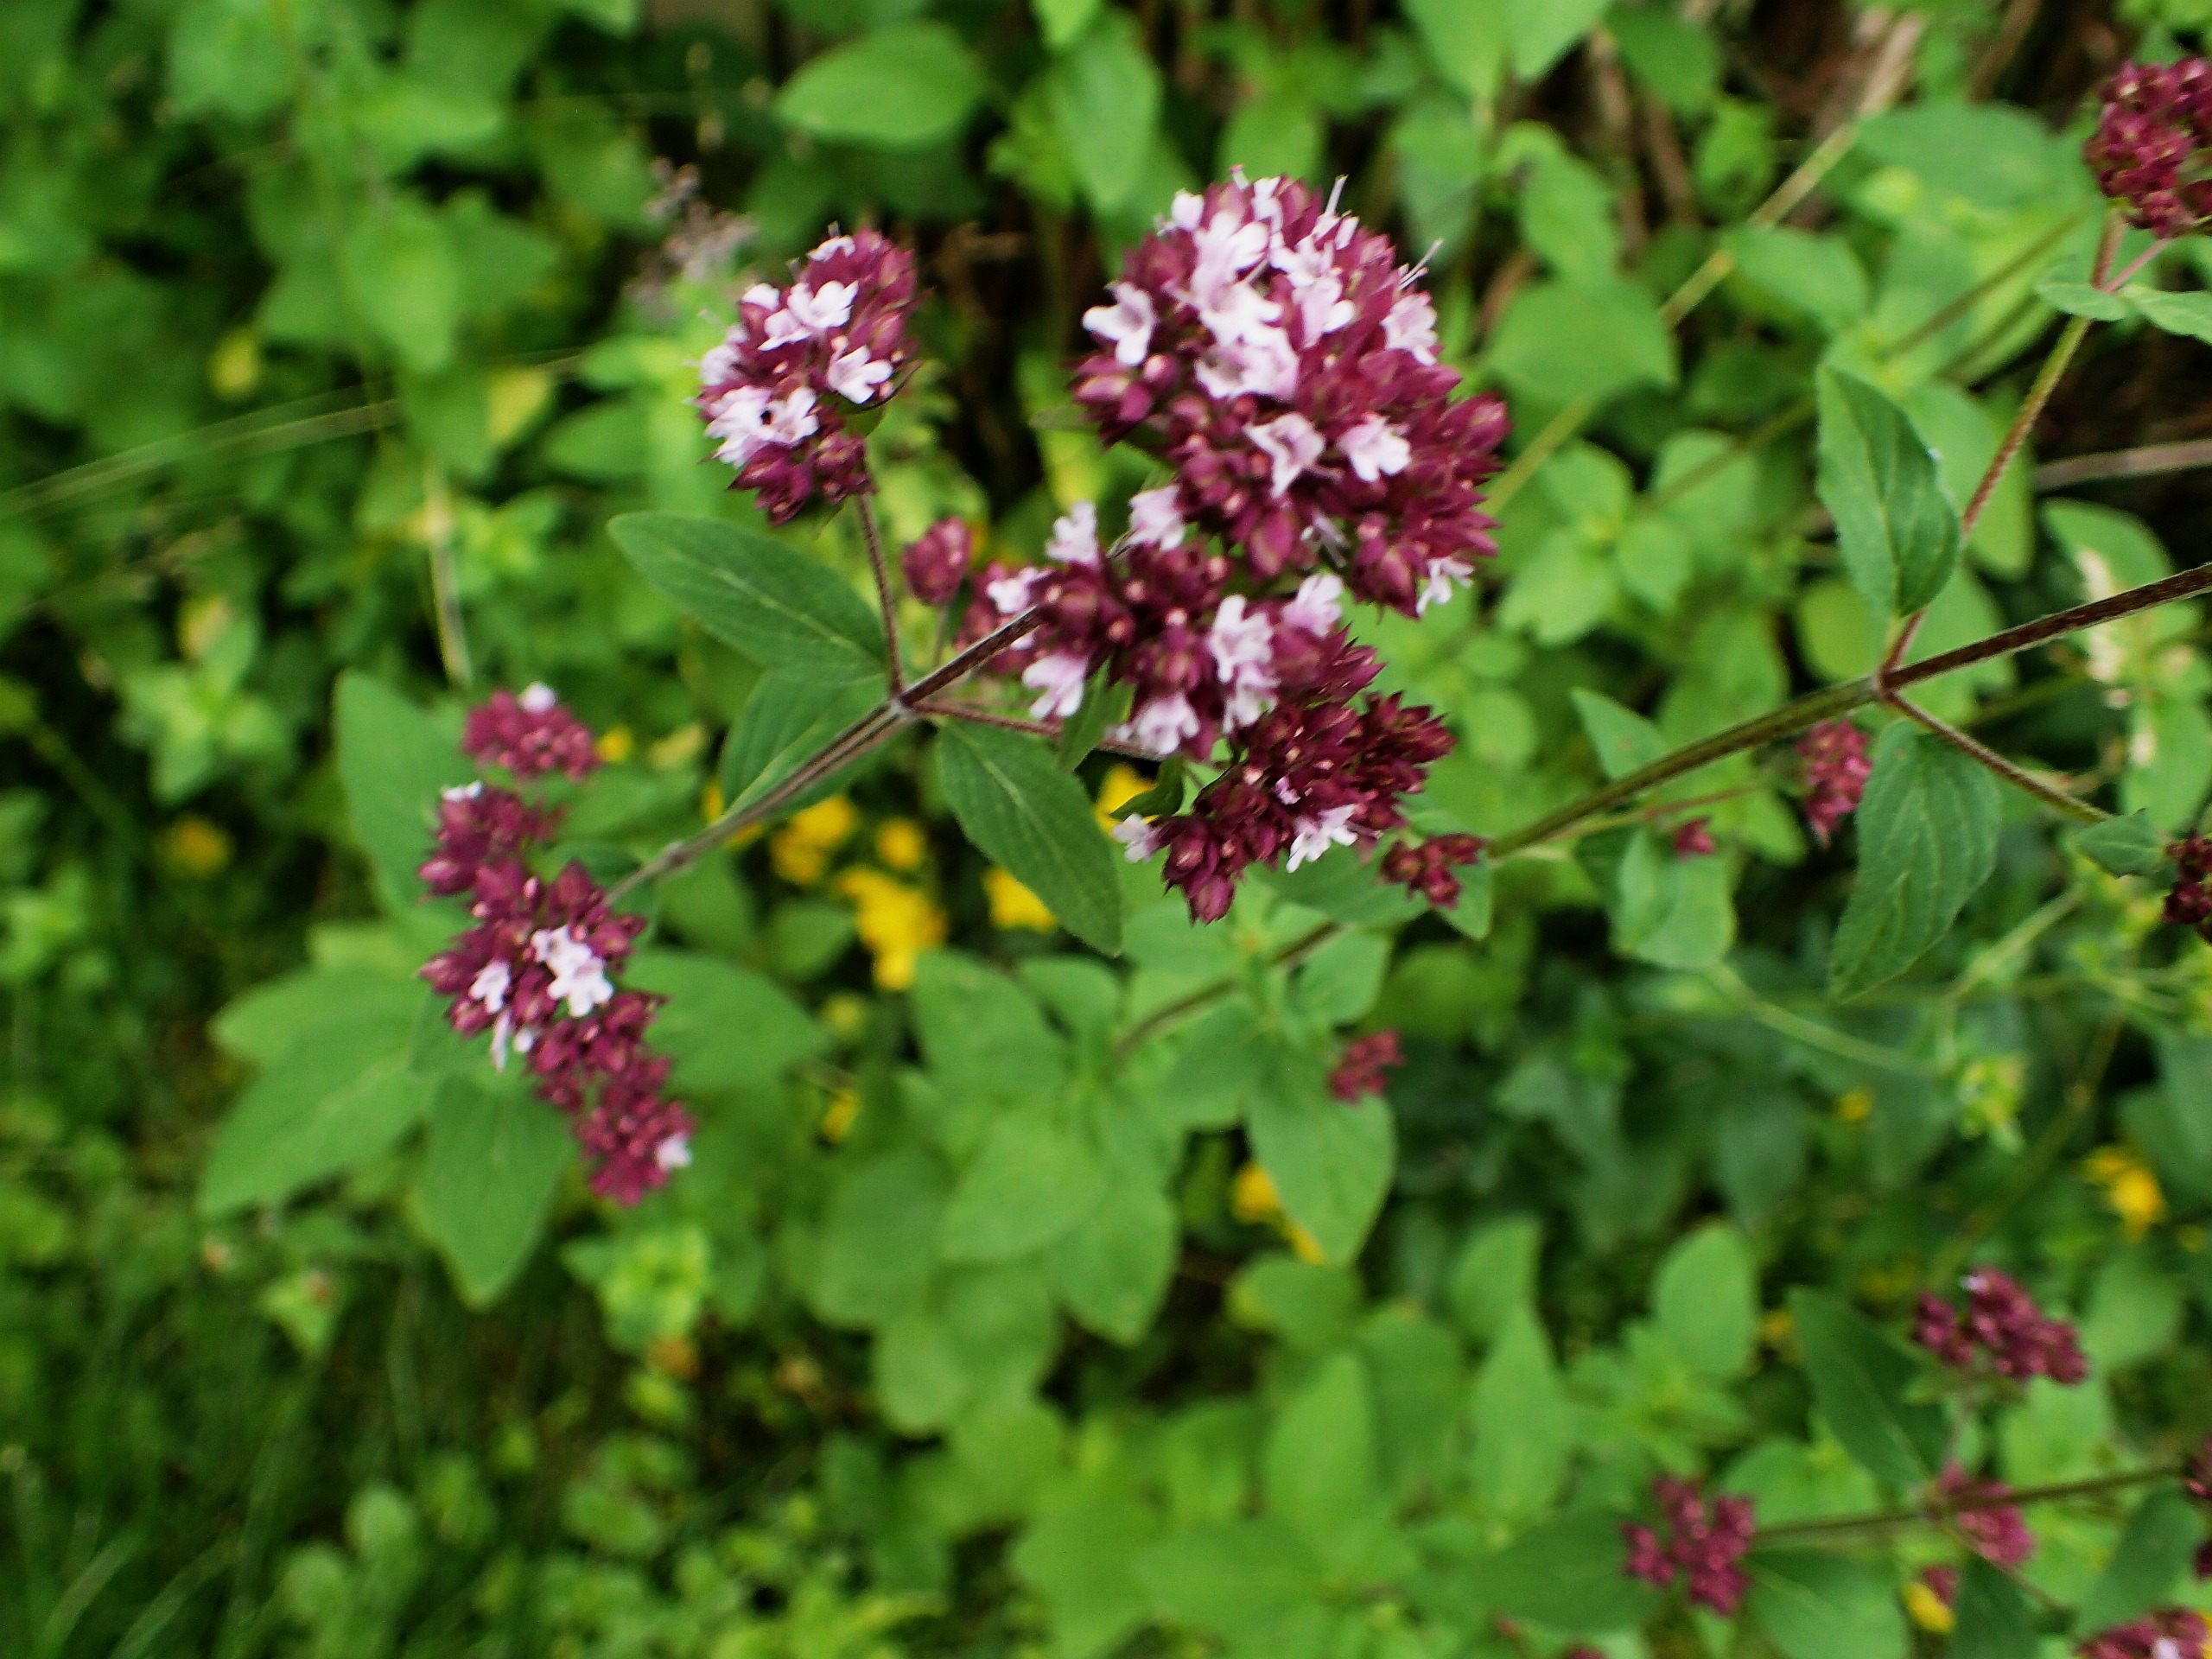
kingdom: Plantae
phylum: Tracheophyta
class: Magnoliopsida
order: Lamiales
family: Lamiaceae
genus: Origanum
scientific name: Origanum vulgare
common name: Merian
